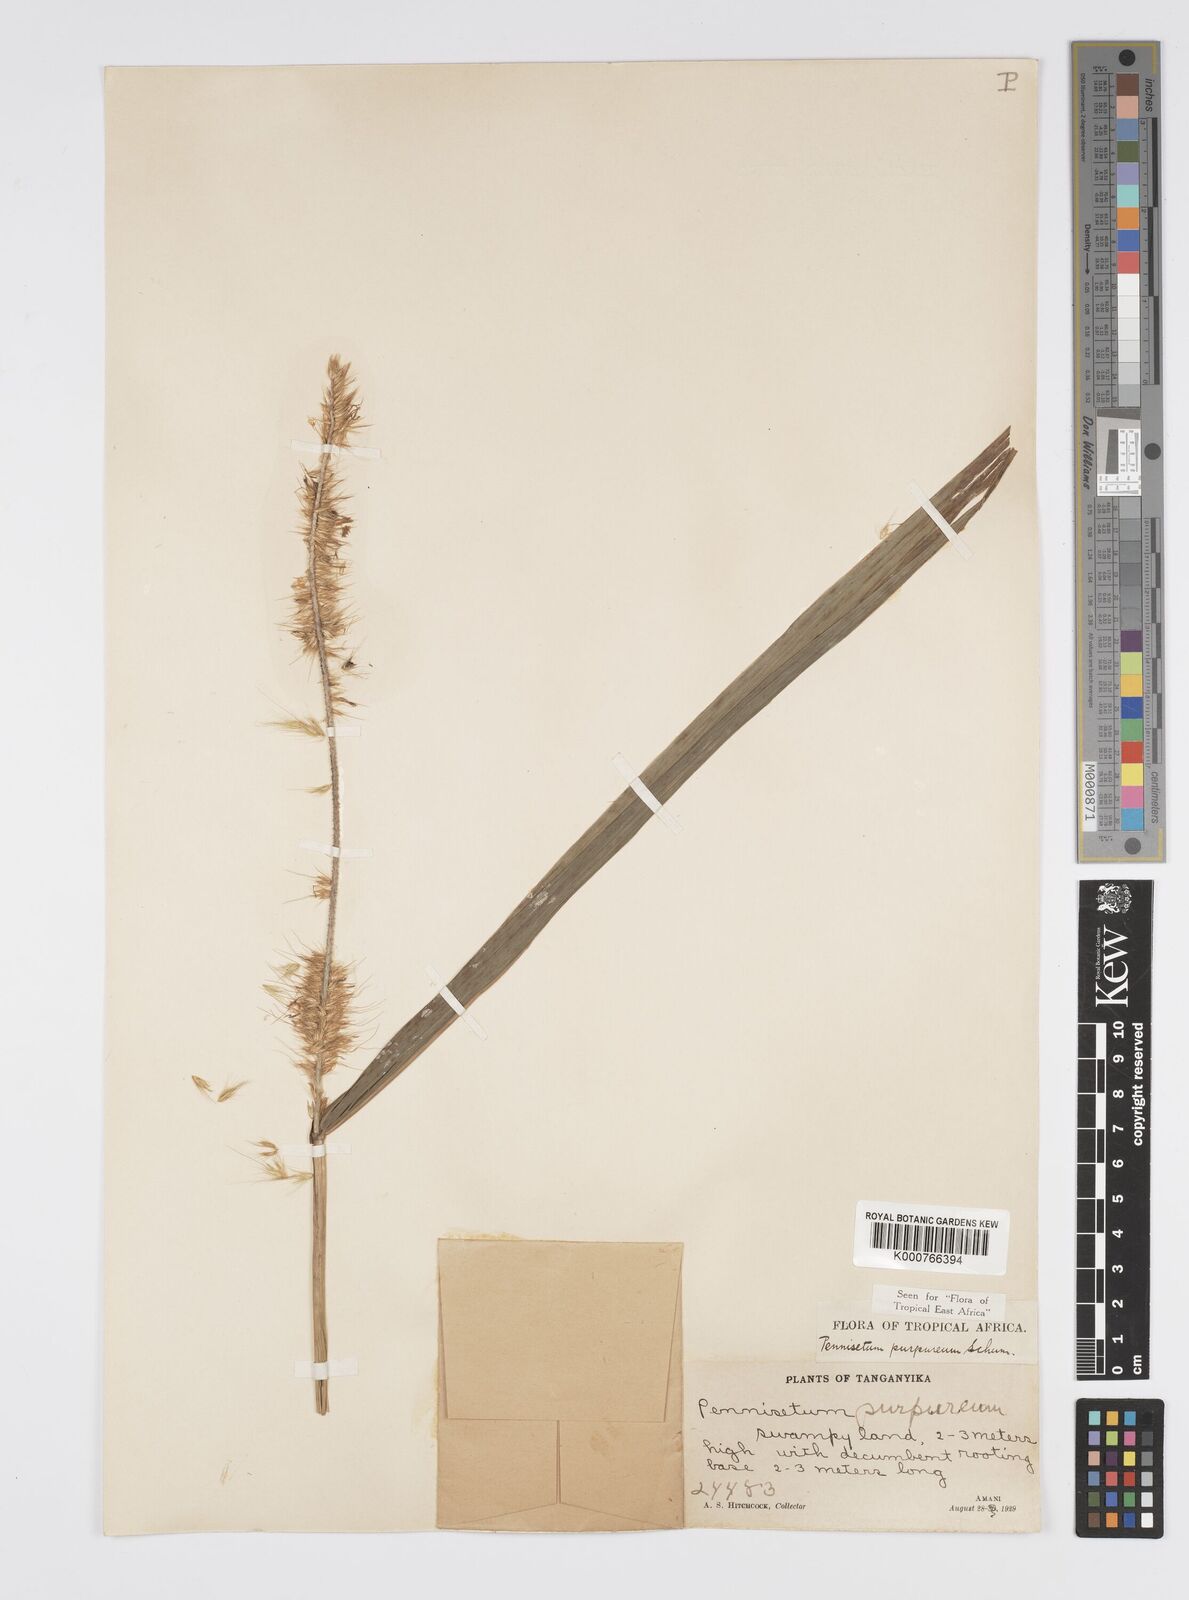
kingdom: Plantae
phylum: Tracheophyta
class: Liliopsida
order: Poales
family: Poaceae
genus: Cenchrus
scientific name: Cenchrus purpureus
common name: Elephant grass
